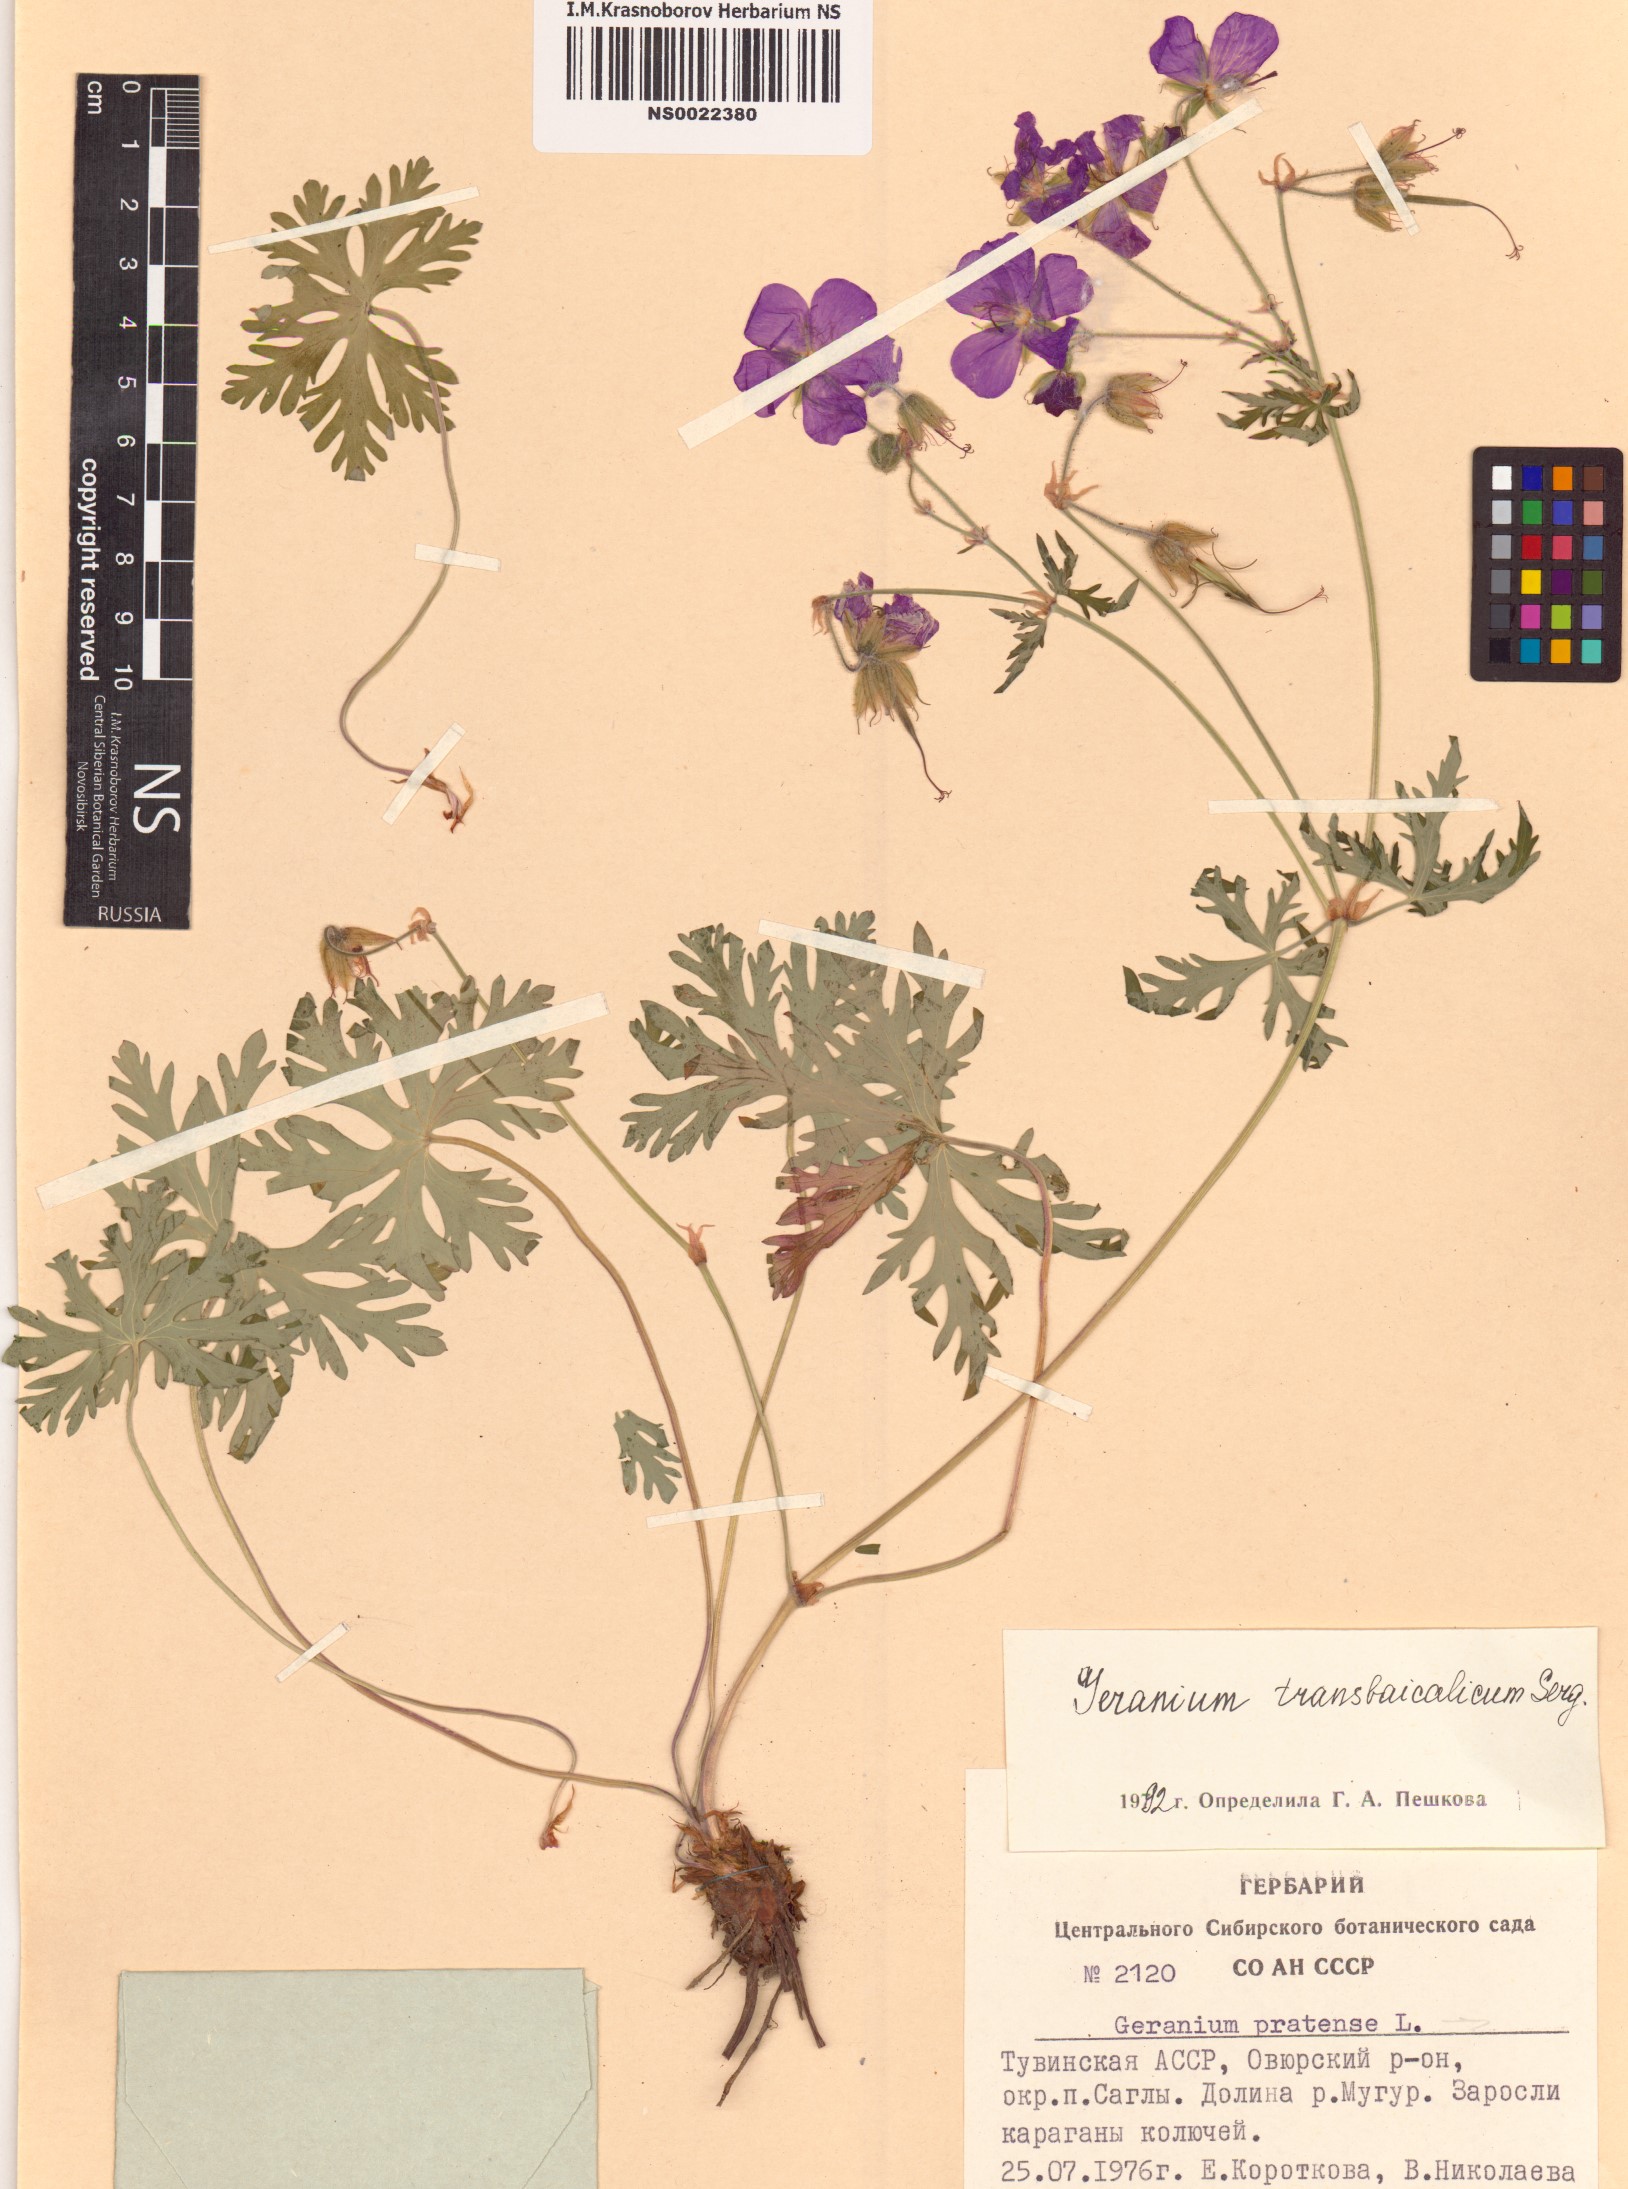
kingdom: Plantae
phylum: Tracheophyta
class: Magnoliopsida
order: Geraniales
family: Geraniaceae
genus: Geranium
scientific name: Geranium pratense
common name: Meadow crane's-bill
